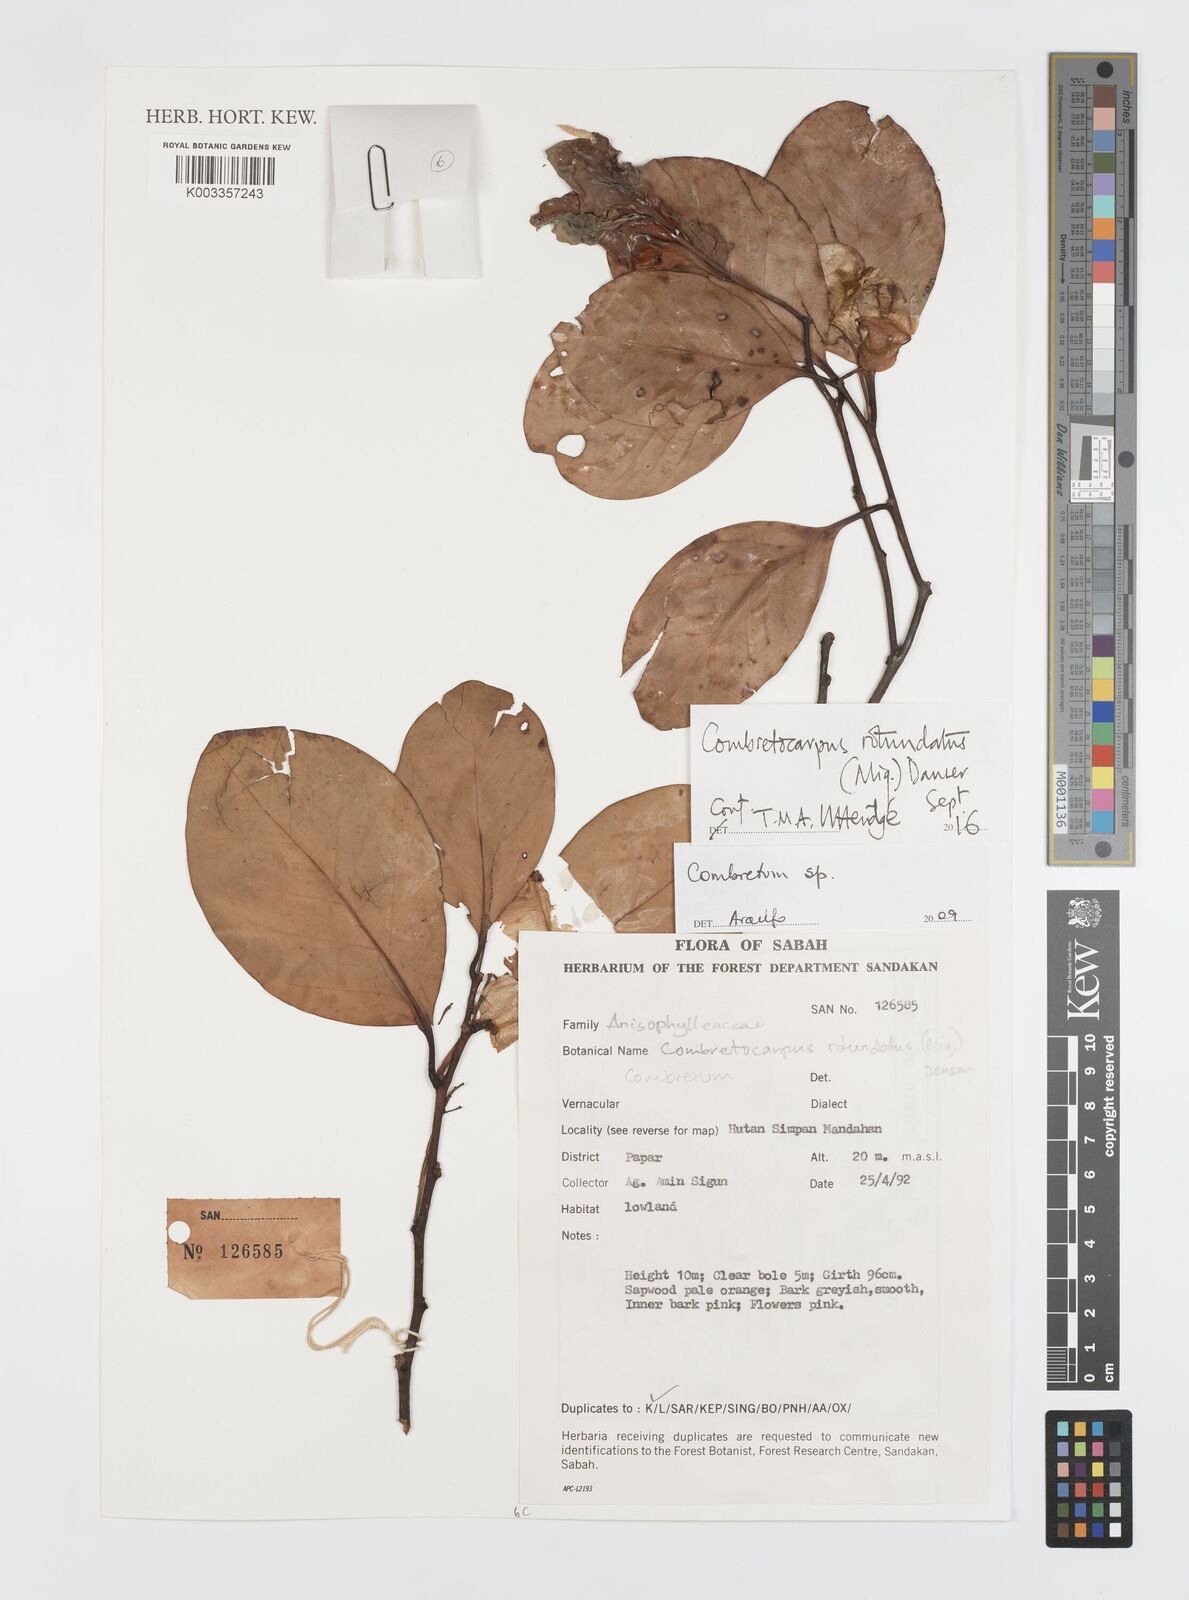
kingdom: Plantae
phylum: Tracheophyta
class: Magnoliopsida
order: Cucurbitales
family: Anisophylleaceae
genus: Combretocarpus
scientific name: Combretocarpus rotundatus
